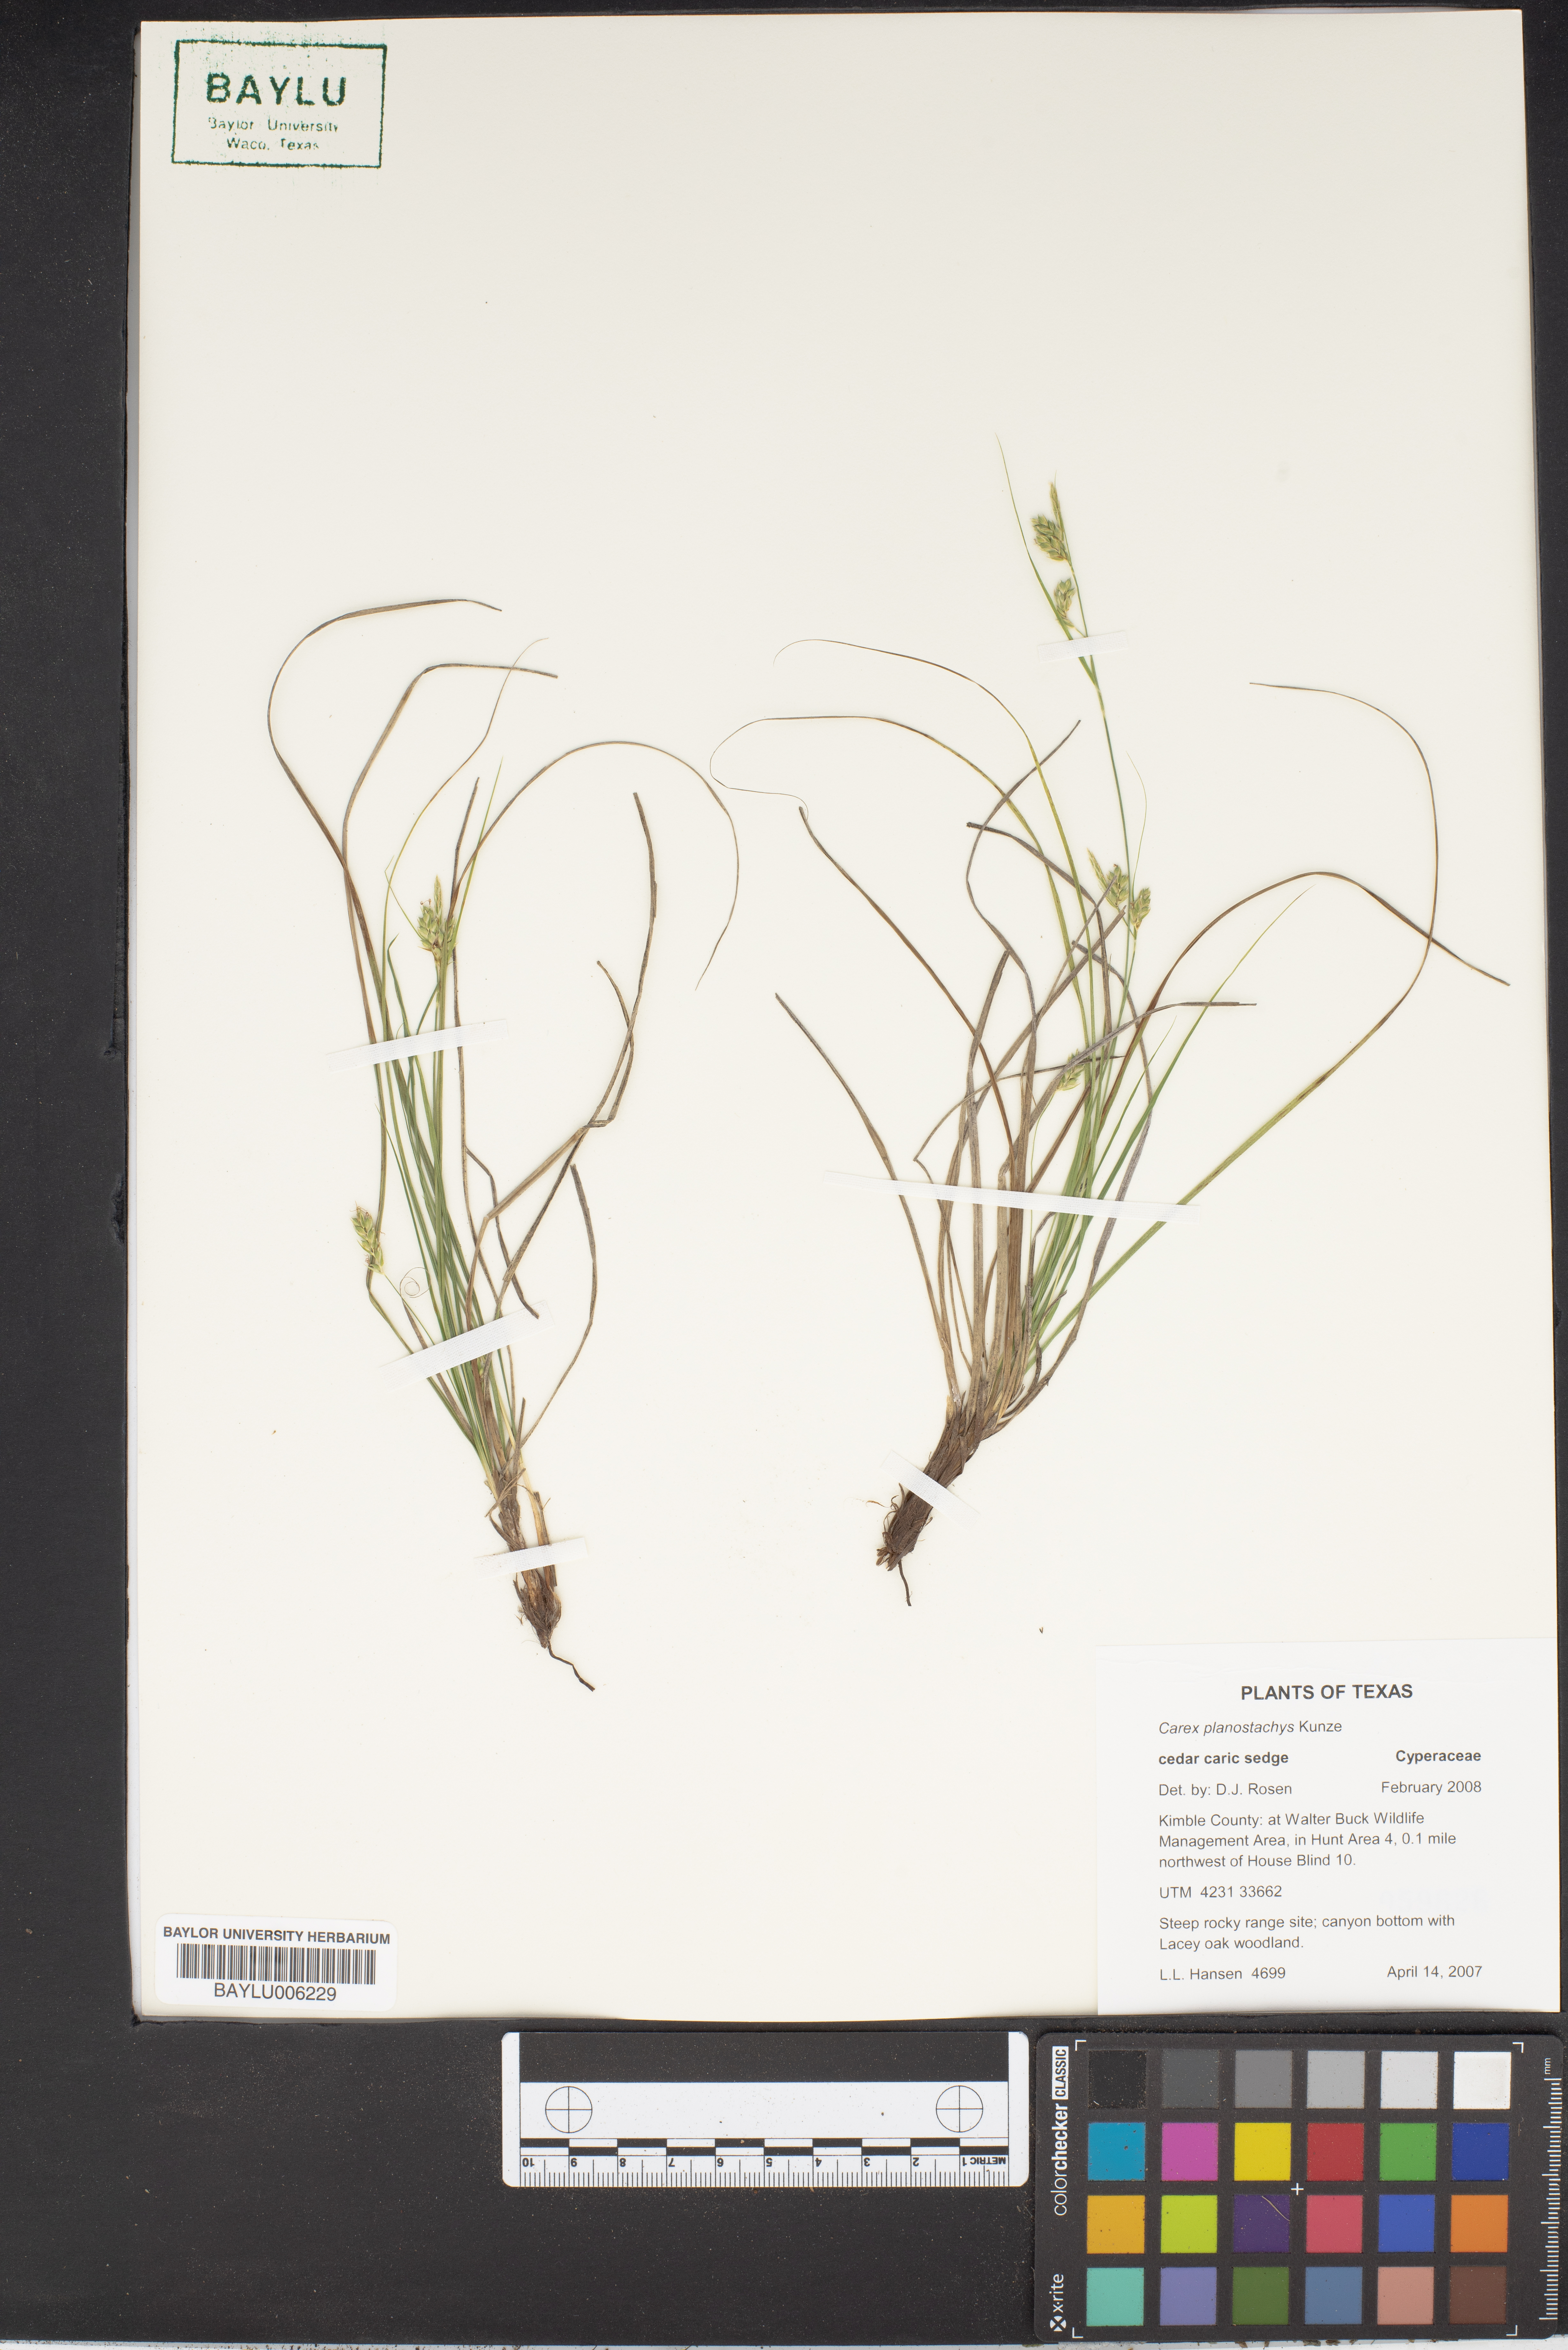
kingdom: Plantae
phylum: Tracheophyta
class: Liliopsida
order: Poales
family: Cyperaceae
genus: Carex
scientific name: Carex planostachys
